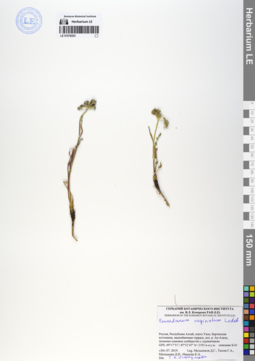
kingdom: Plantae
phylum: Tracheophyta
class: Magnoliopsida
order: Apiales
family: Apiaceae
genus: Peucedanum
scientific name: Peucedanum vaginatum
